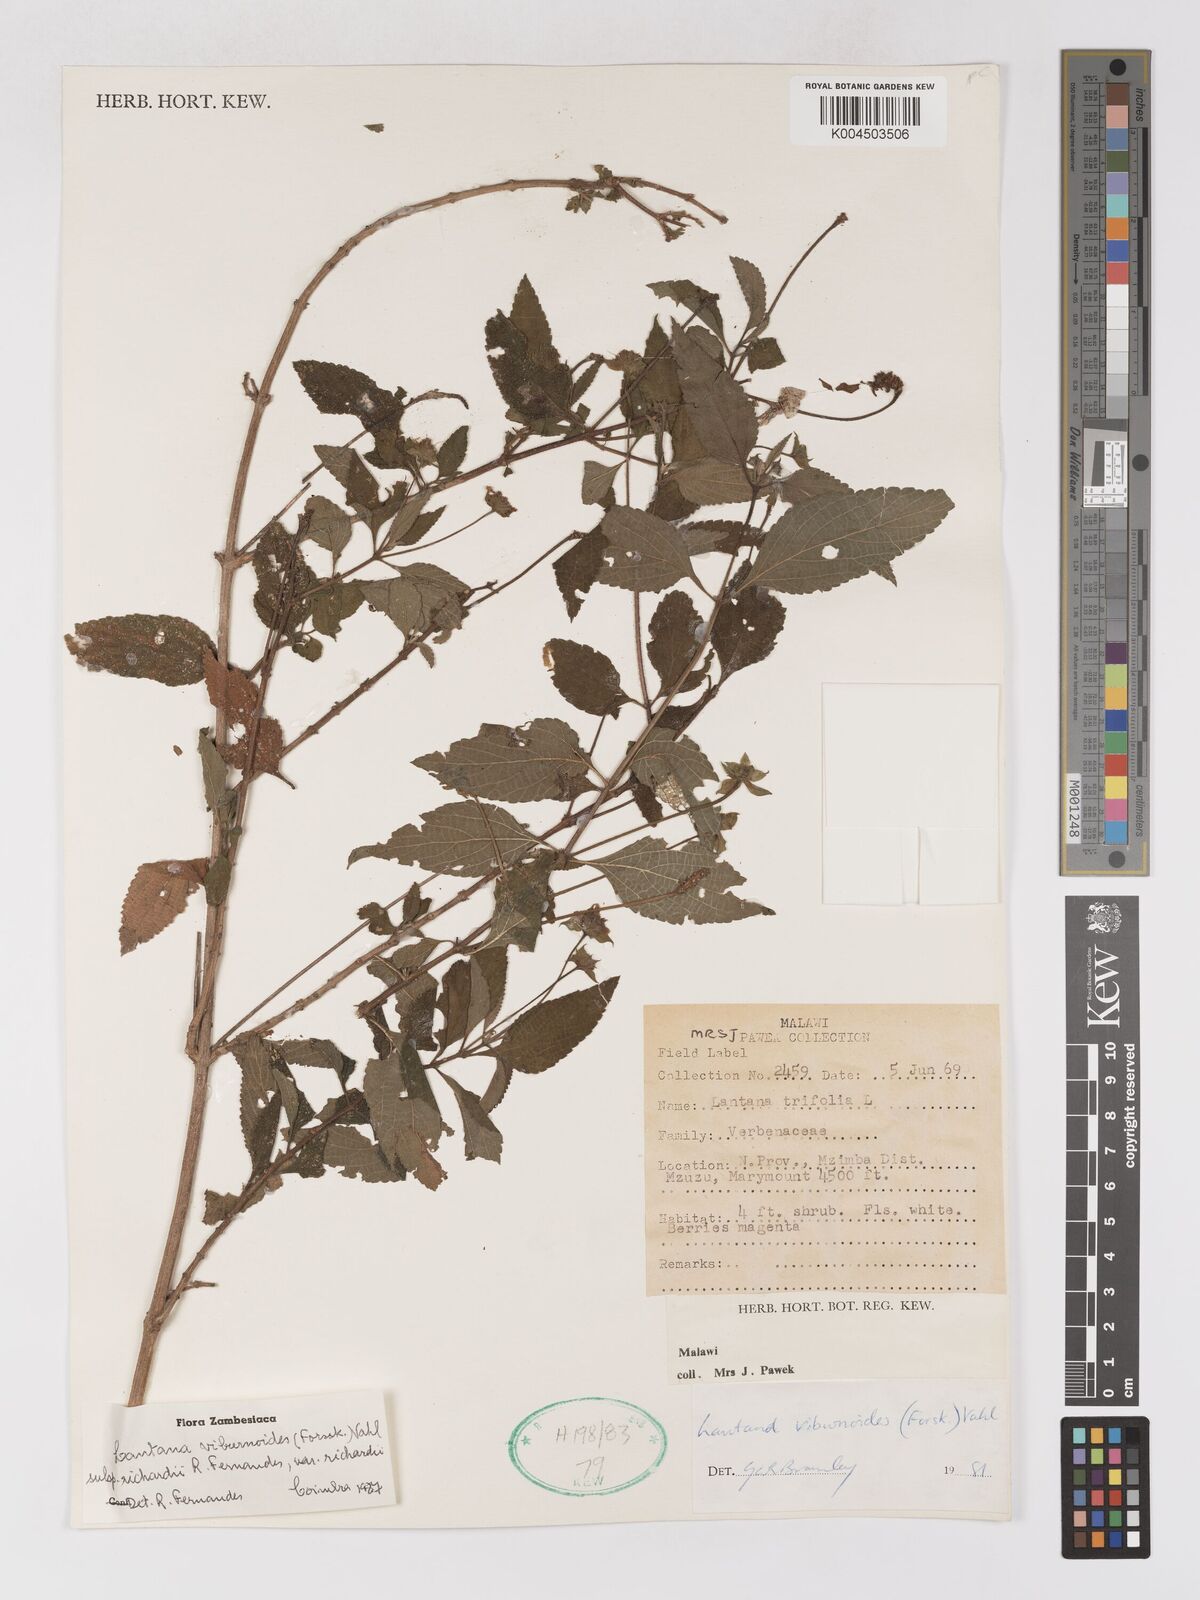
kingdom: Plantae
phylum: Tracheophyta
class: Magnoliopsida
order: Lamiales
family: Verbenaceae
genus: Lantana
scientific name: Lantana
